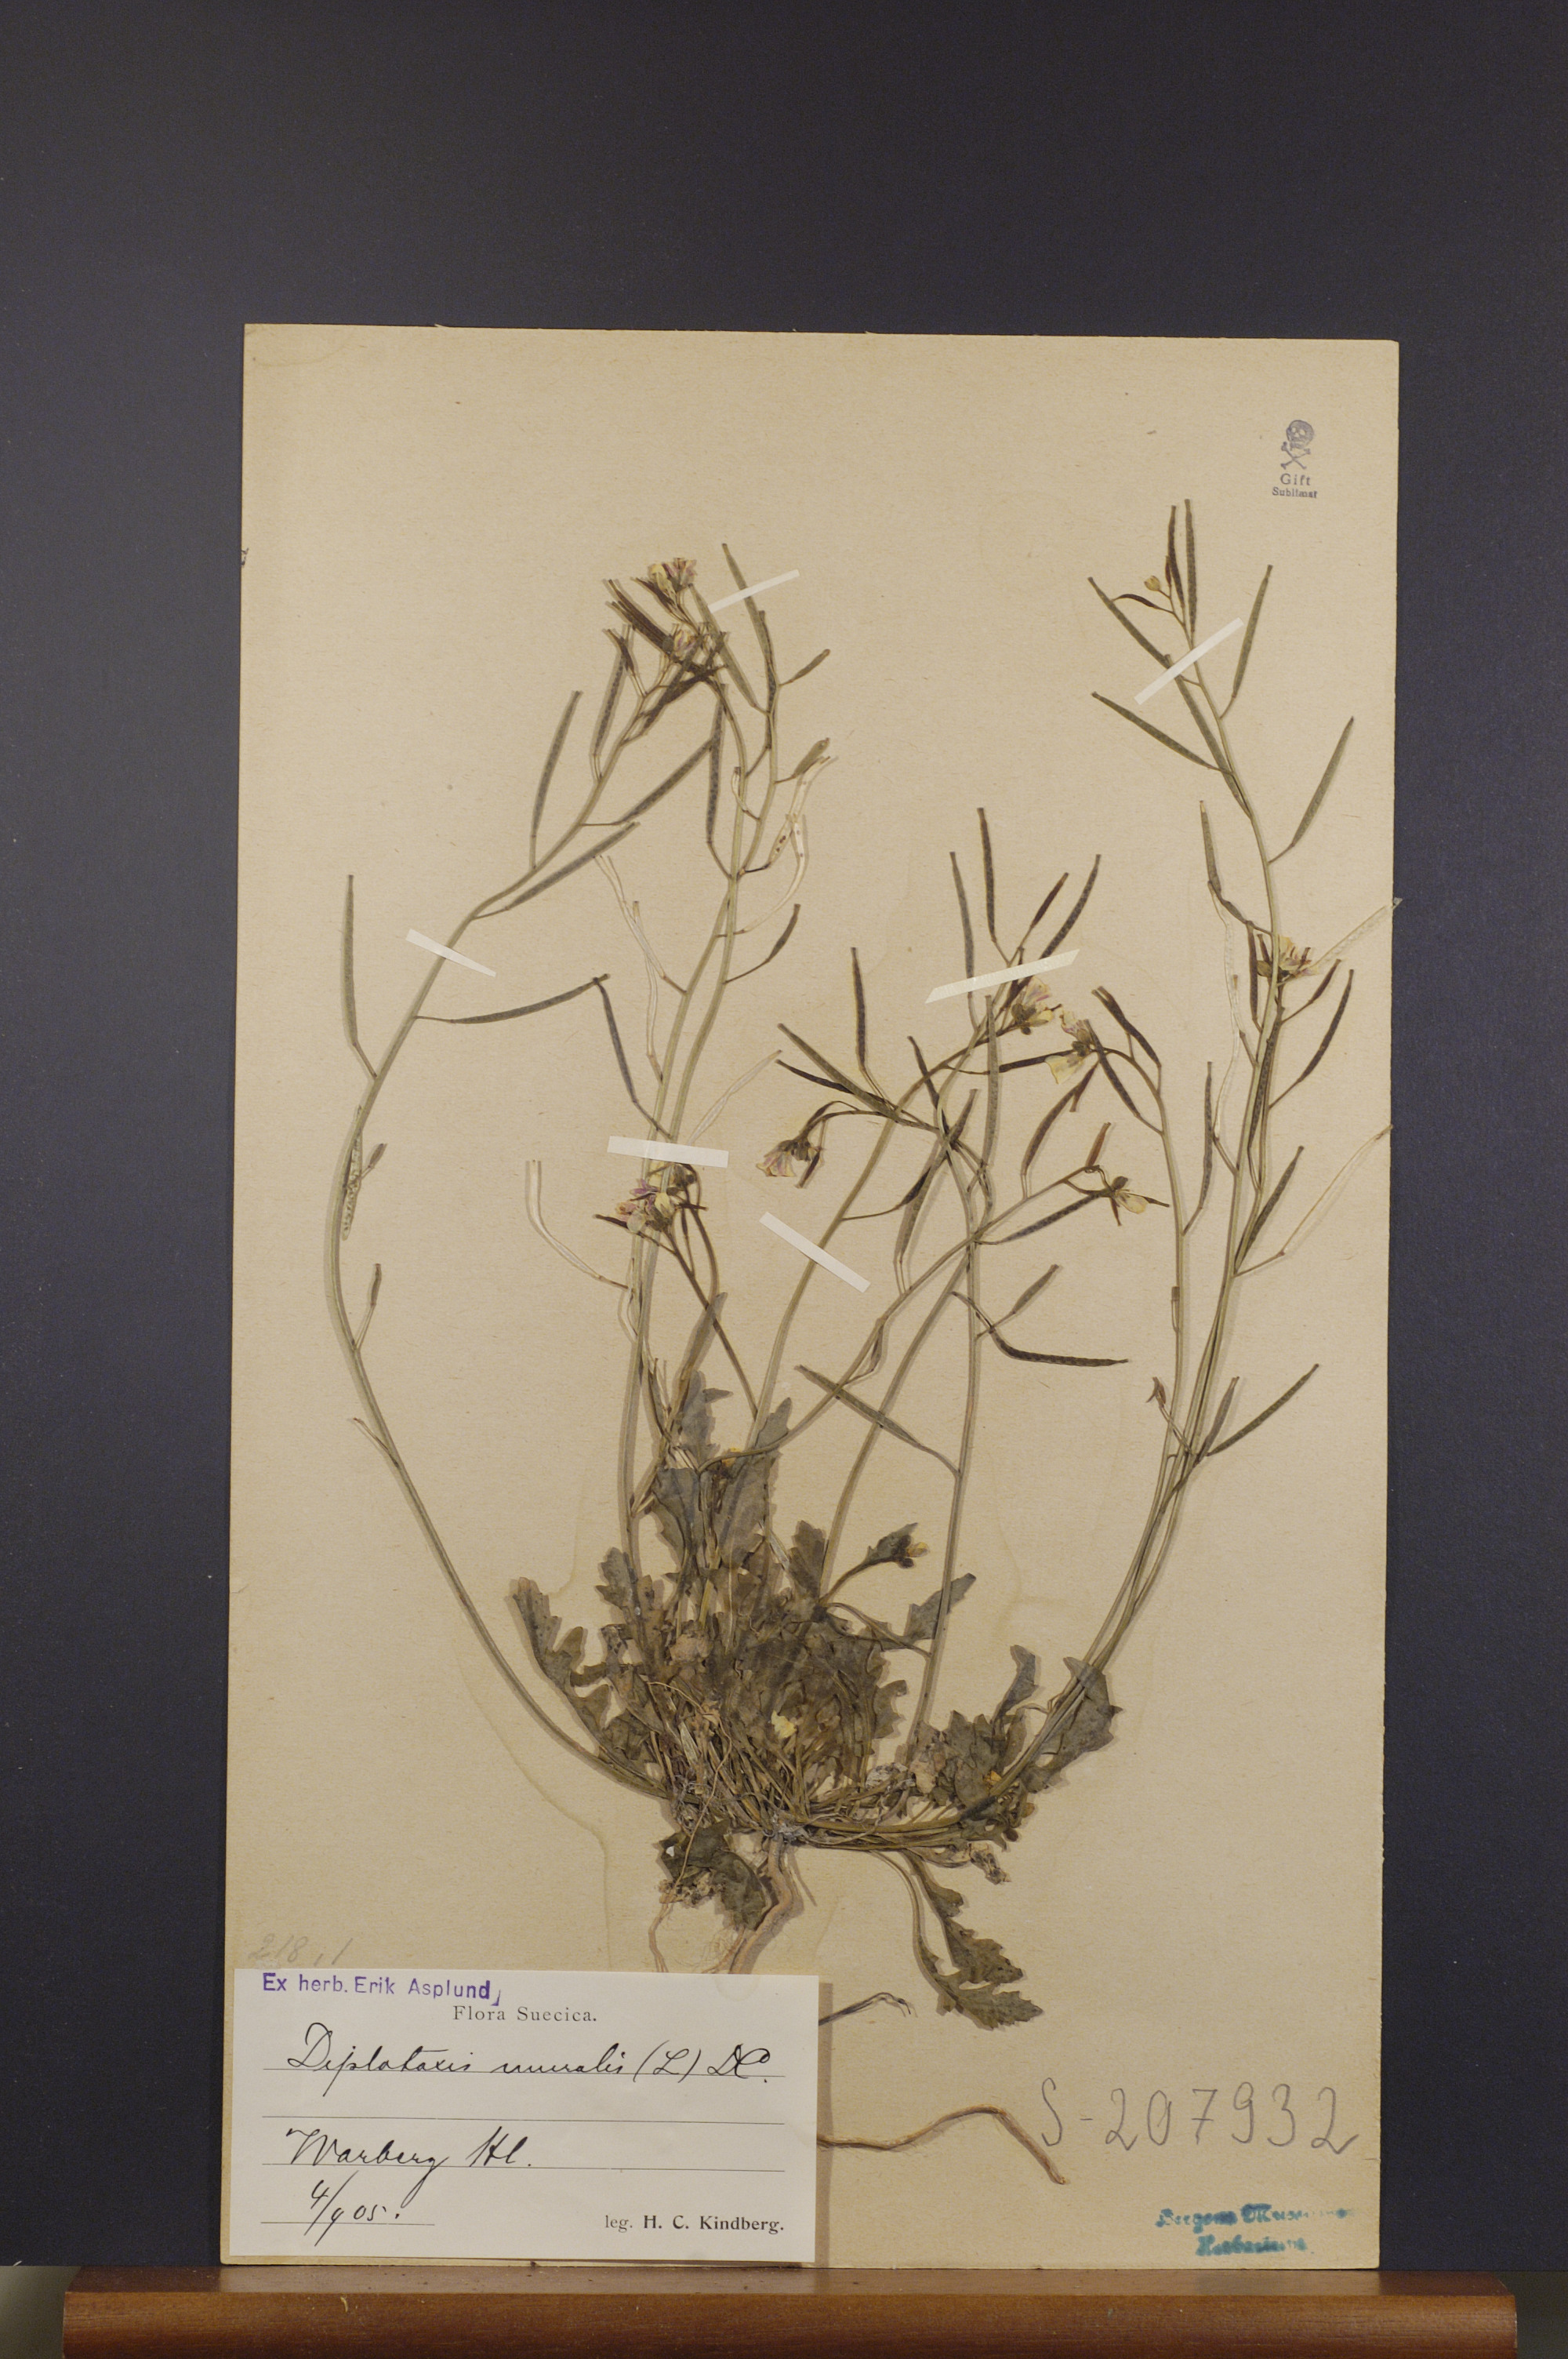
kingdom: Plantae
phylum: Tracheophyta
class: Magnoliopsida
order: Brassicales
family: Brassicaceae
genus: Diplotaxis
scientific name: Diplotaxis muralis
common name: Annual wall-rocket
